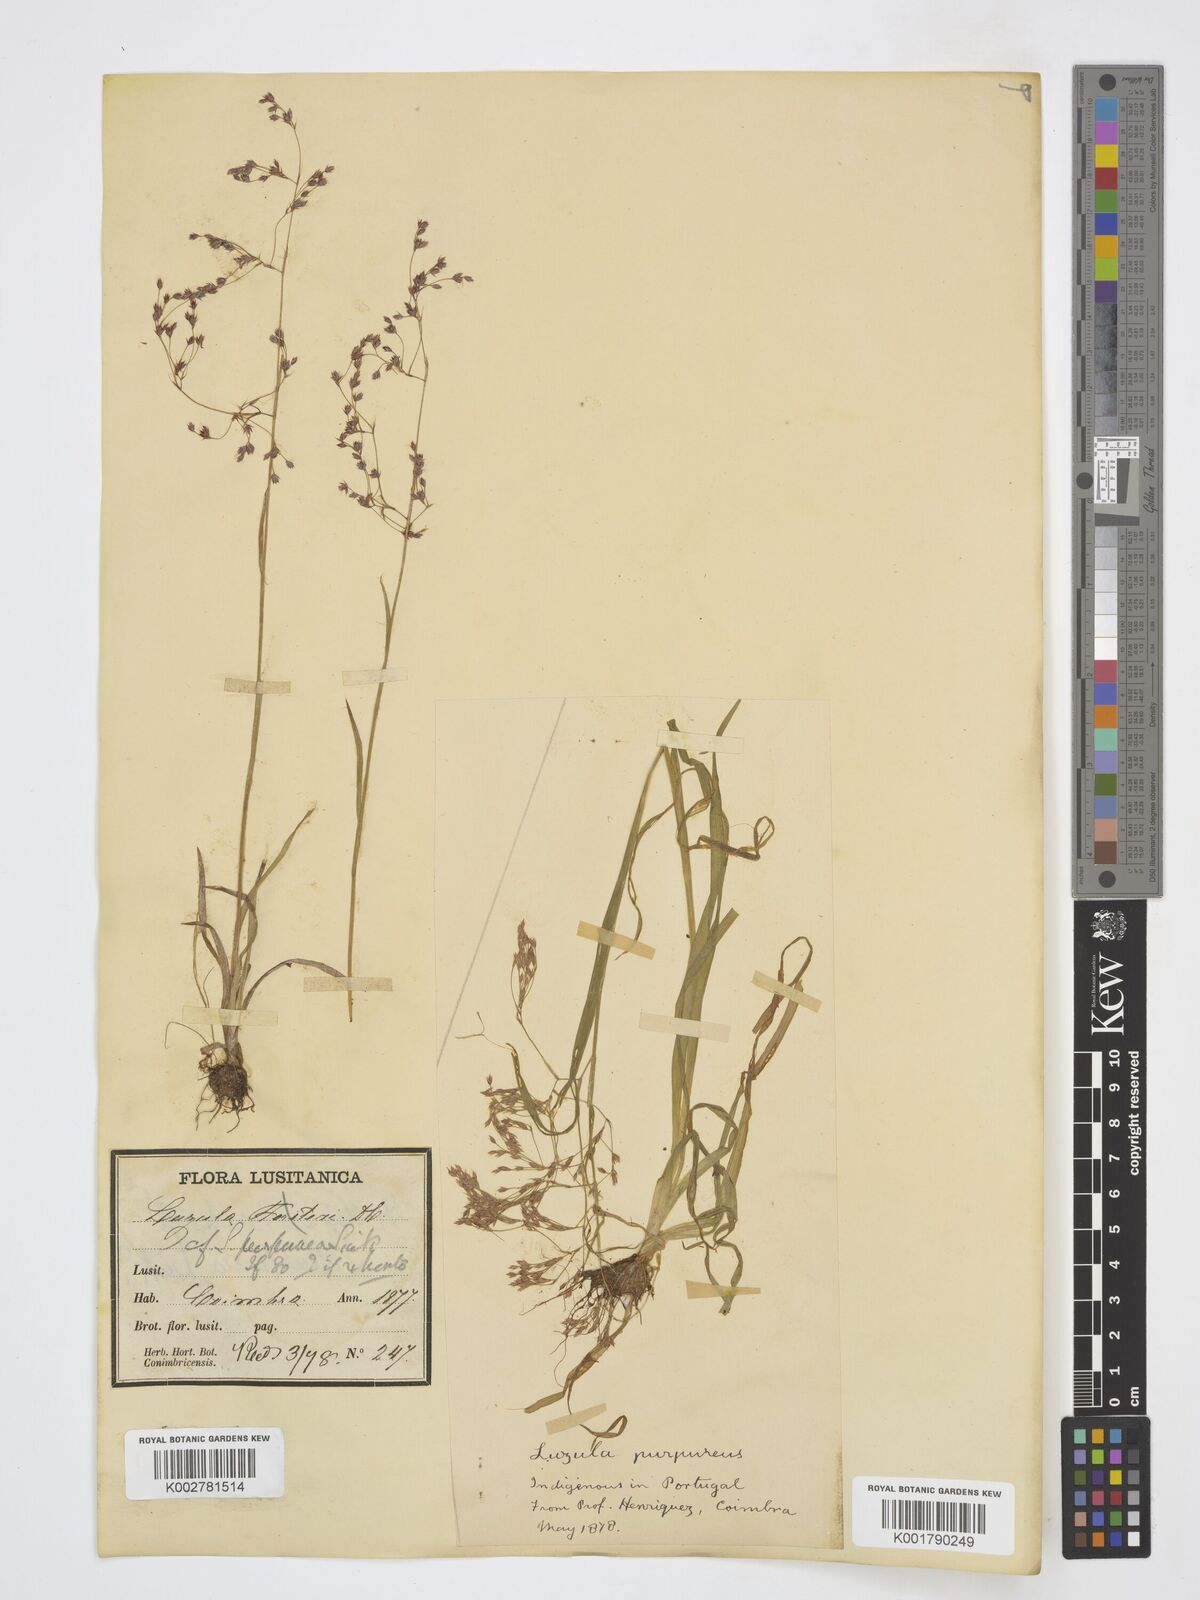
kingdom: Plantae
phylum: Tracheophyta
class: Liliopsida
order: Poales
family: Juncaceae
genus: Luzula
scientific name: Luzula
